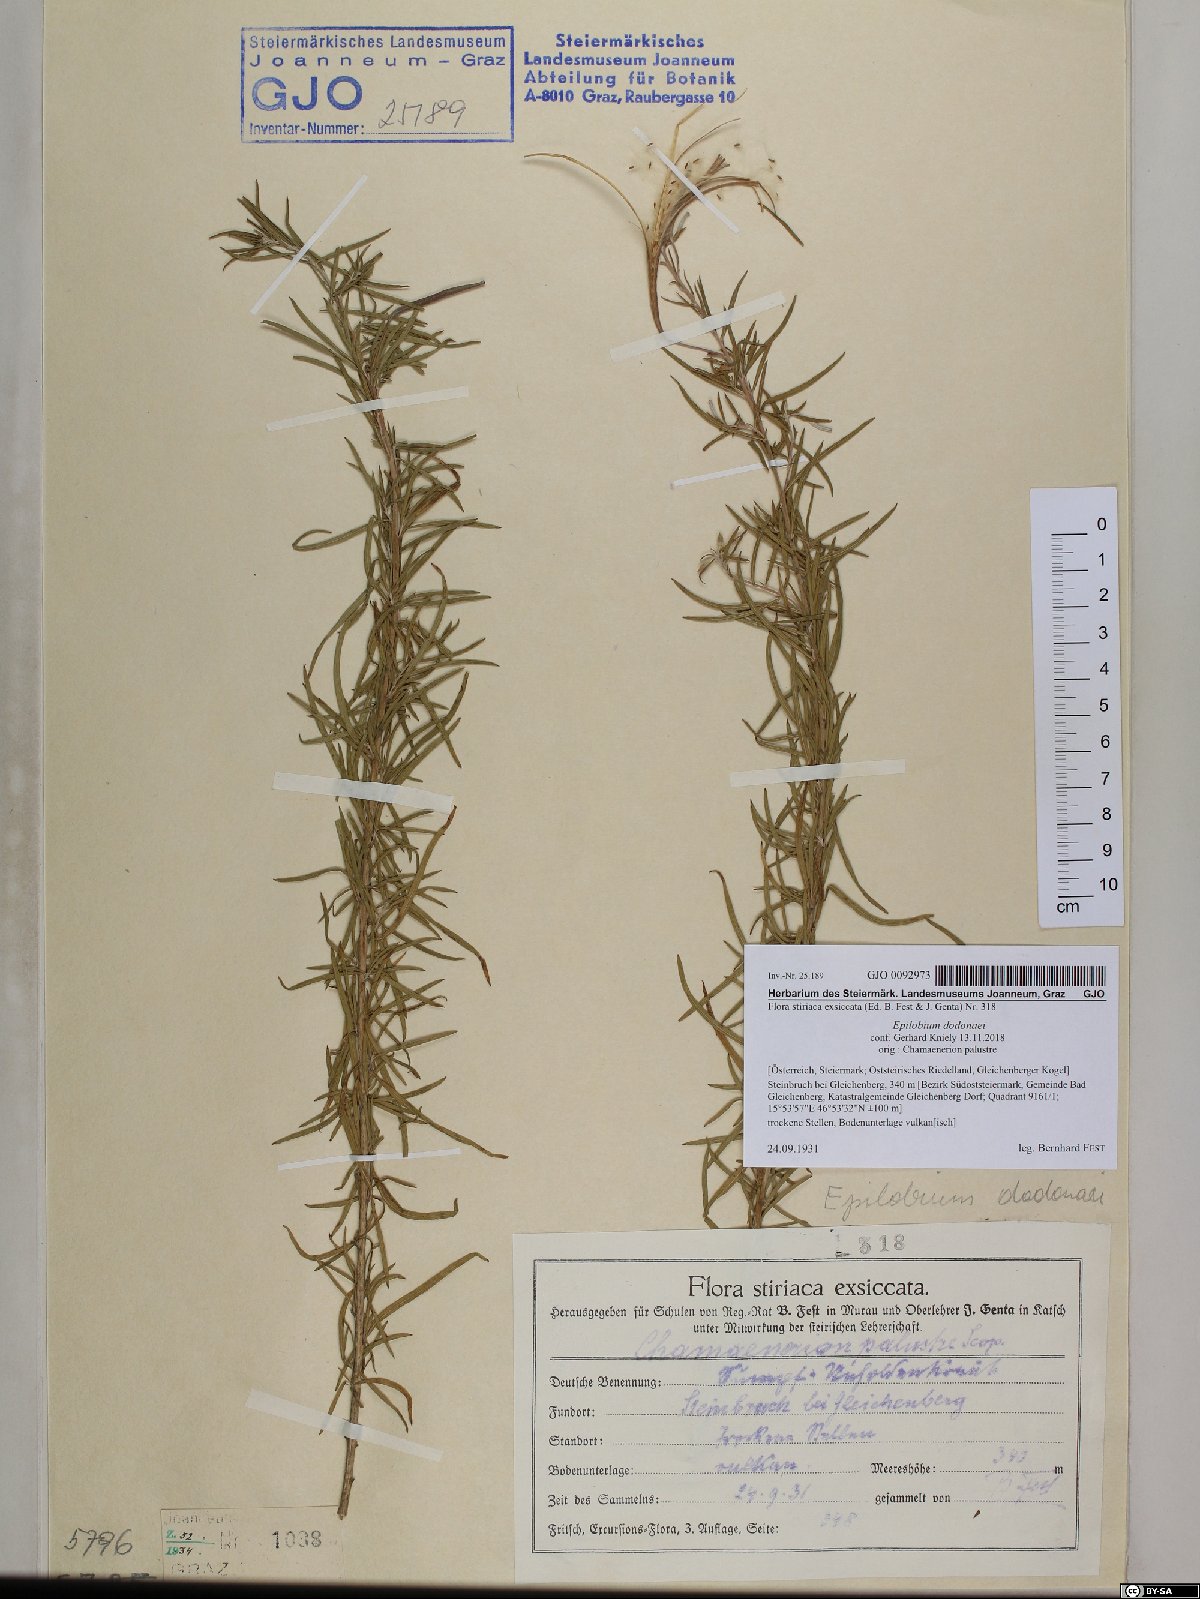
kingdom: Plantae
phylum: Tracheophyta
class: Magnoliopsida
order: Myrtales
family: Onagraceae
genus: Chamaenerion
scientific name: Chamaenerion dodonaei
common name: Rosemary-leaved willowherb
